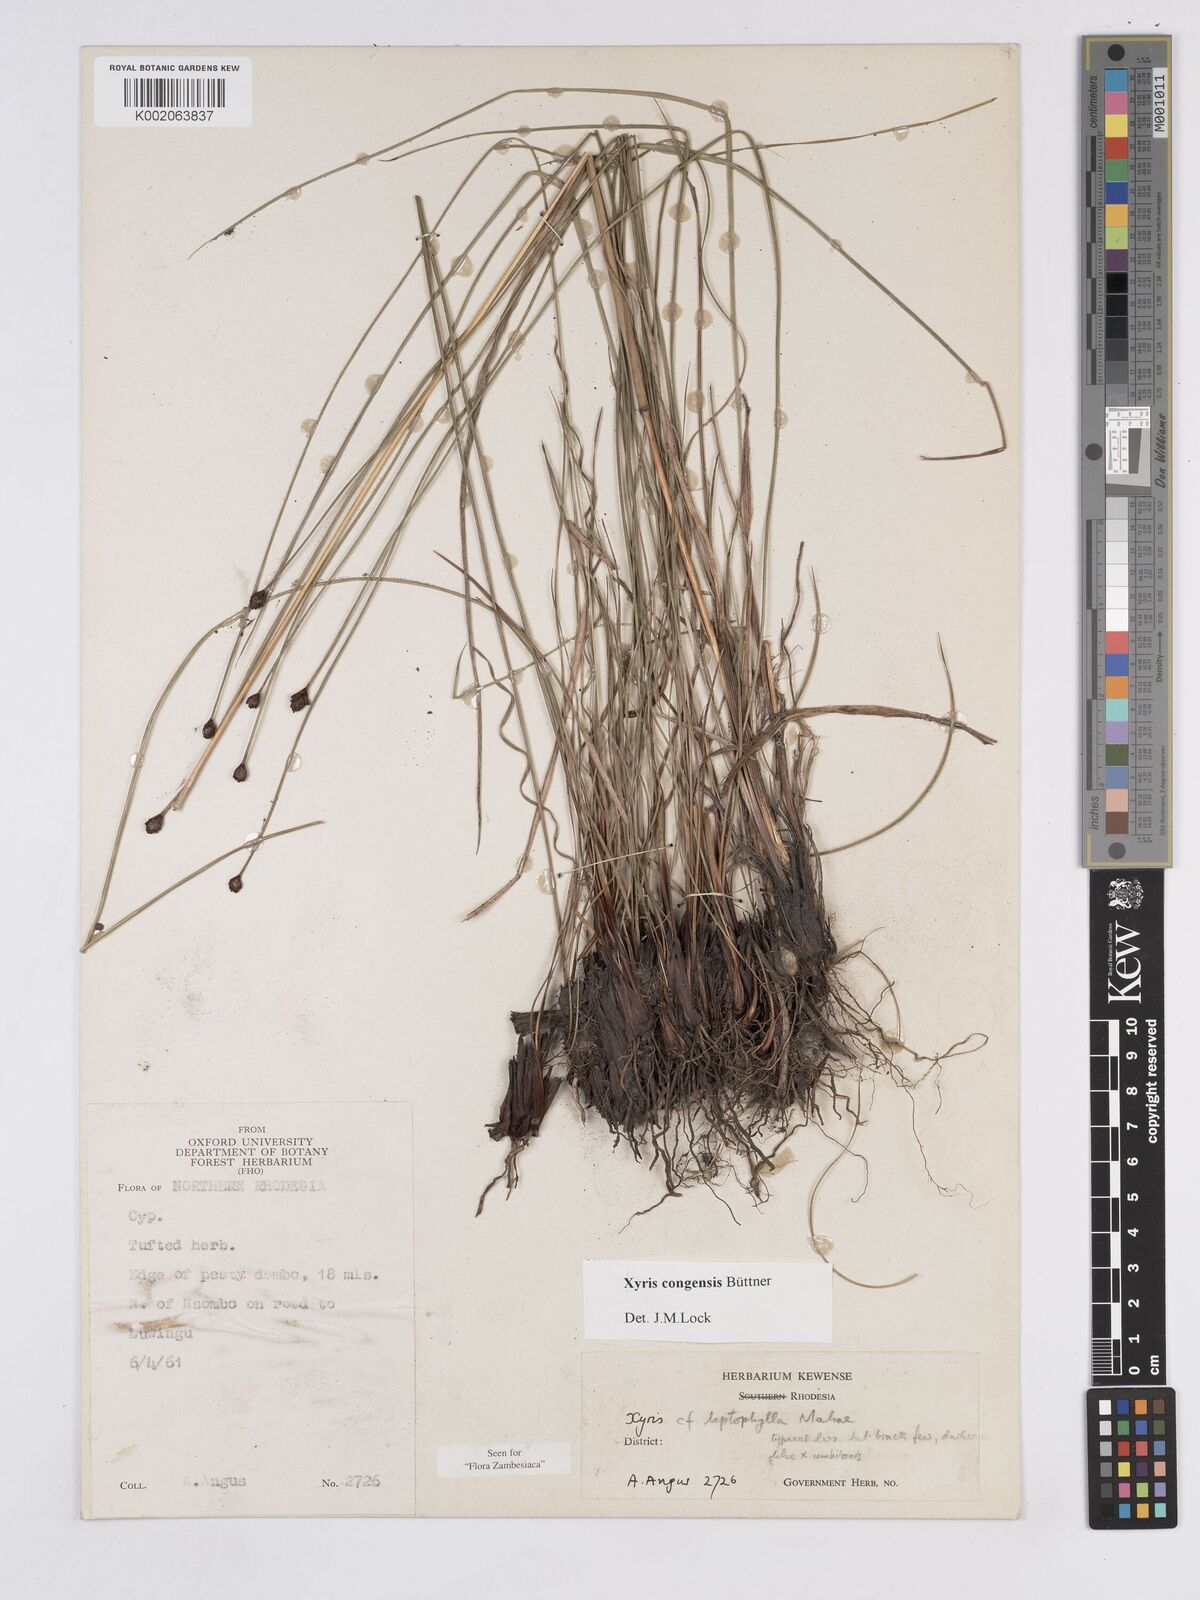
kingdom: Plantae
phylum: Tracheophyta
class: Liliopsida
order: Poales
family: Xyridaceae
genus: Xyris
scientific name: Xyris congensis
